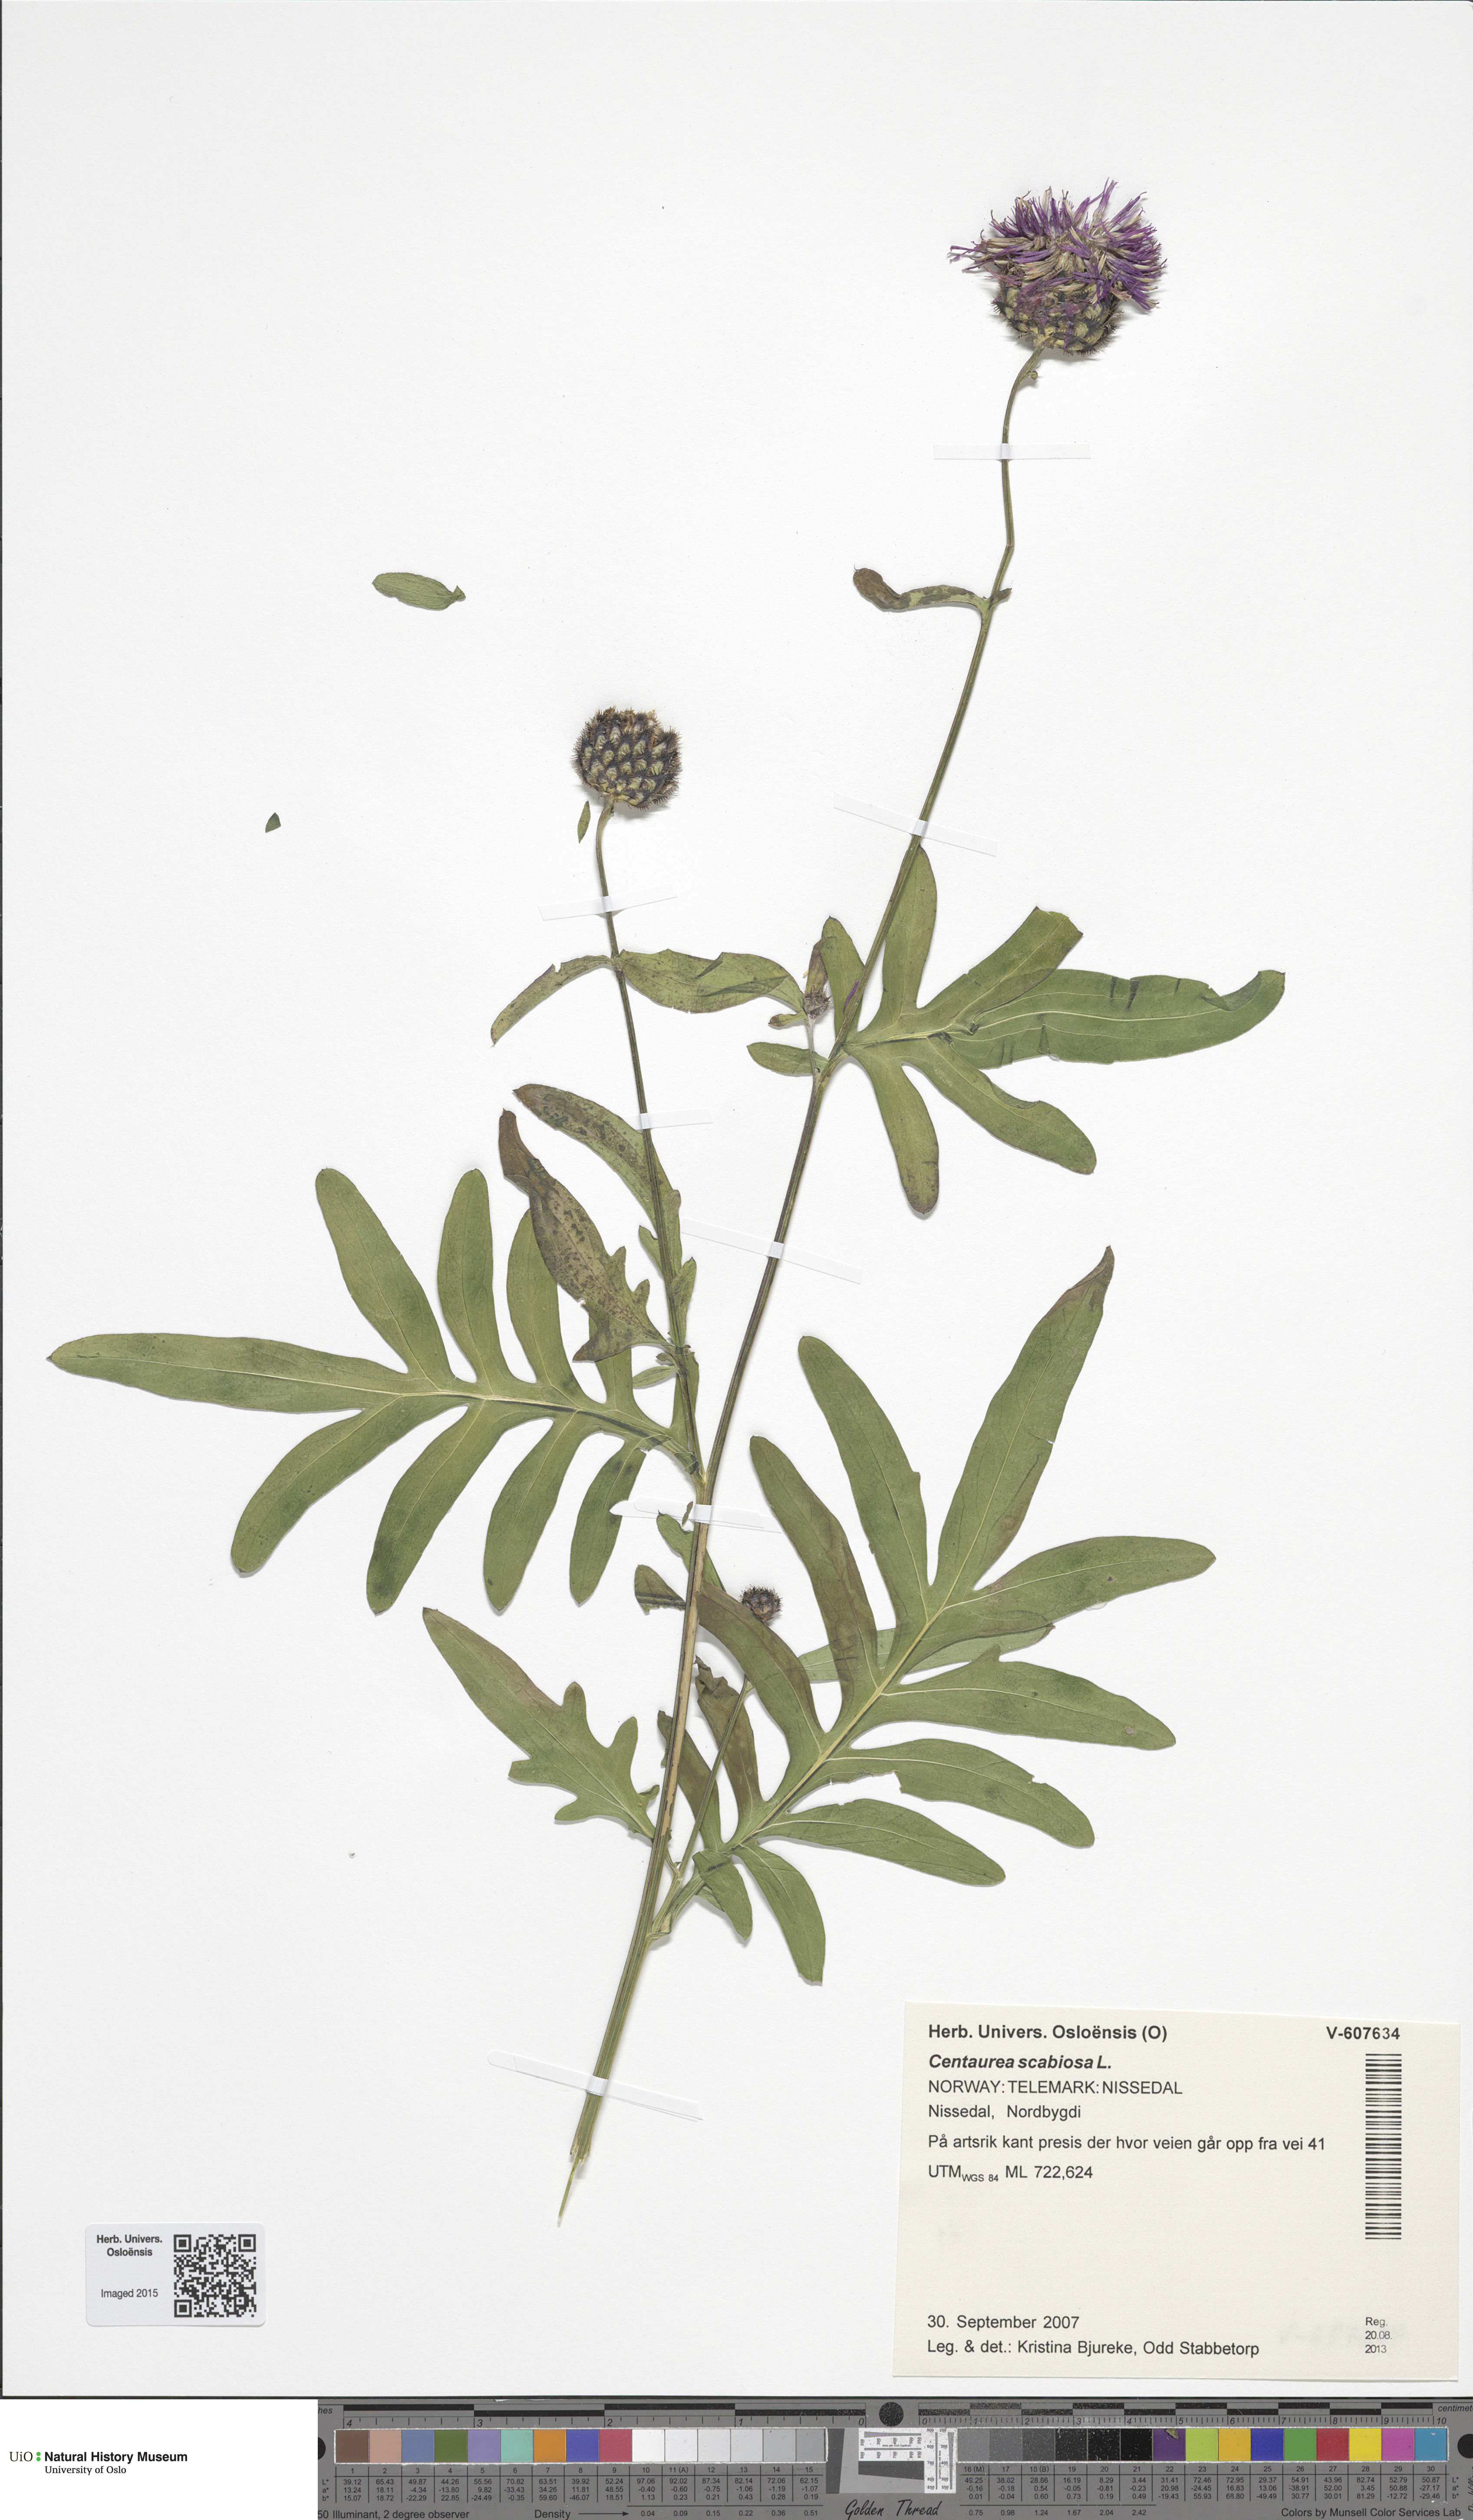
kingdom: Plantae
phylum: Tracheophyta
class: Magnoliopsida
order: Asterales
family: Asteraceae
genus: Centaurea
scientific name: Centaurea scabiosa
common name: Greater knapweed
